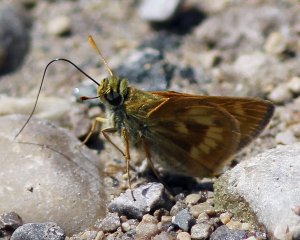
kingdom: Animalia
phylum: Arthropoda
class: Insecta
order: Lepidoptera
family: Hesperiidae
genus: Polites
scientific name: Polites
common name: Long Dash Skipper
